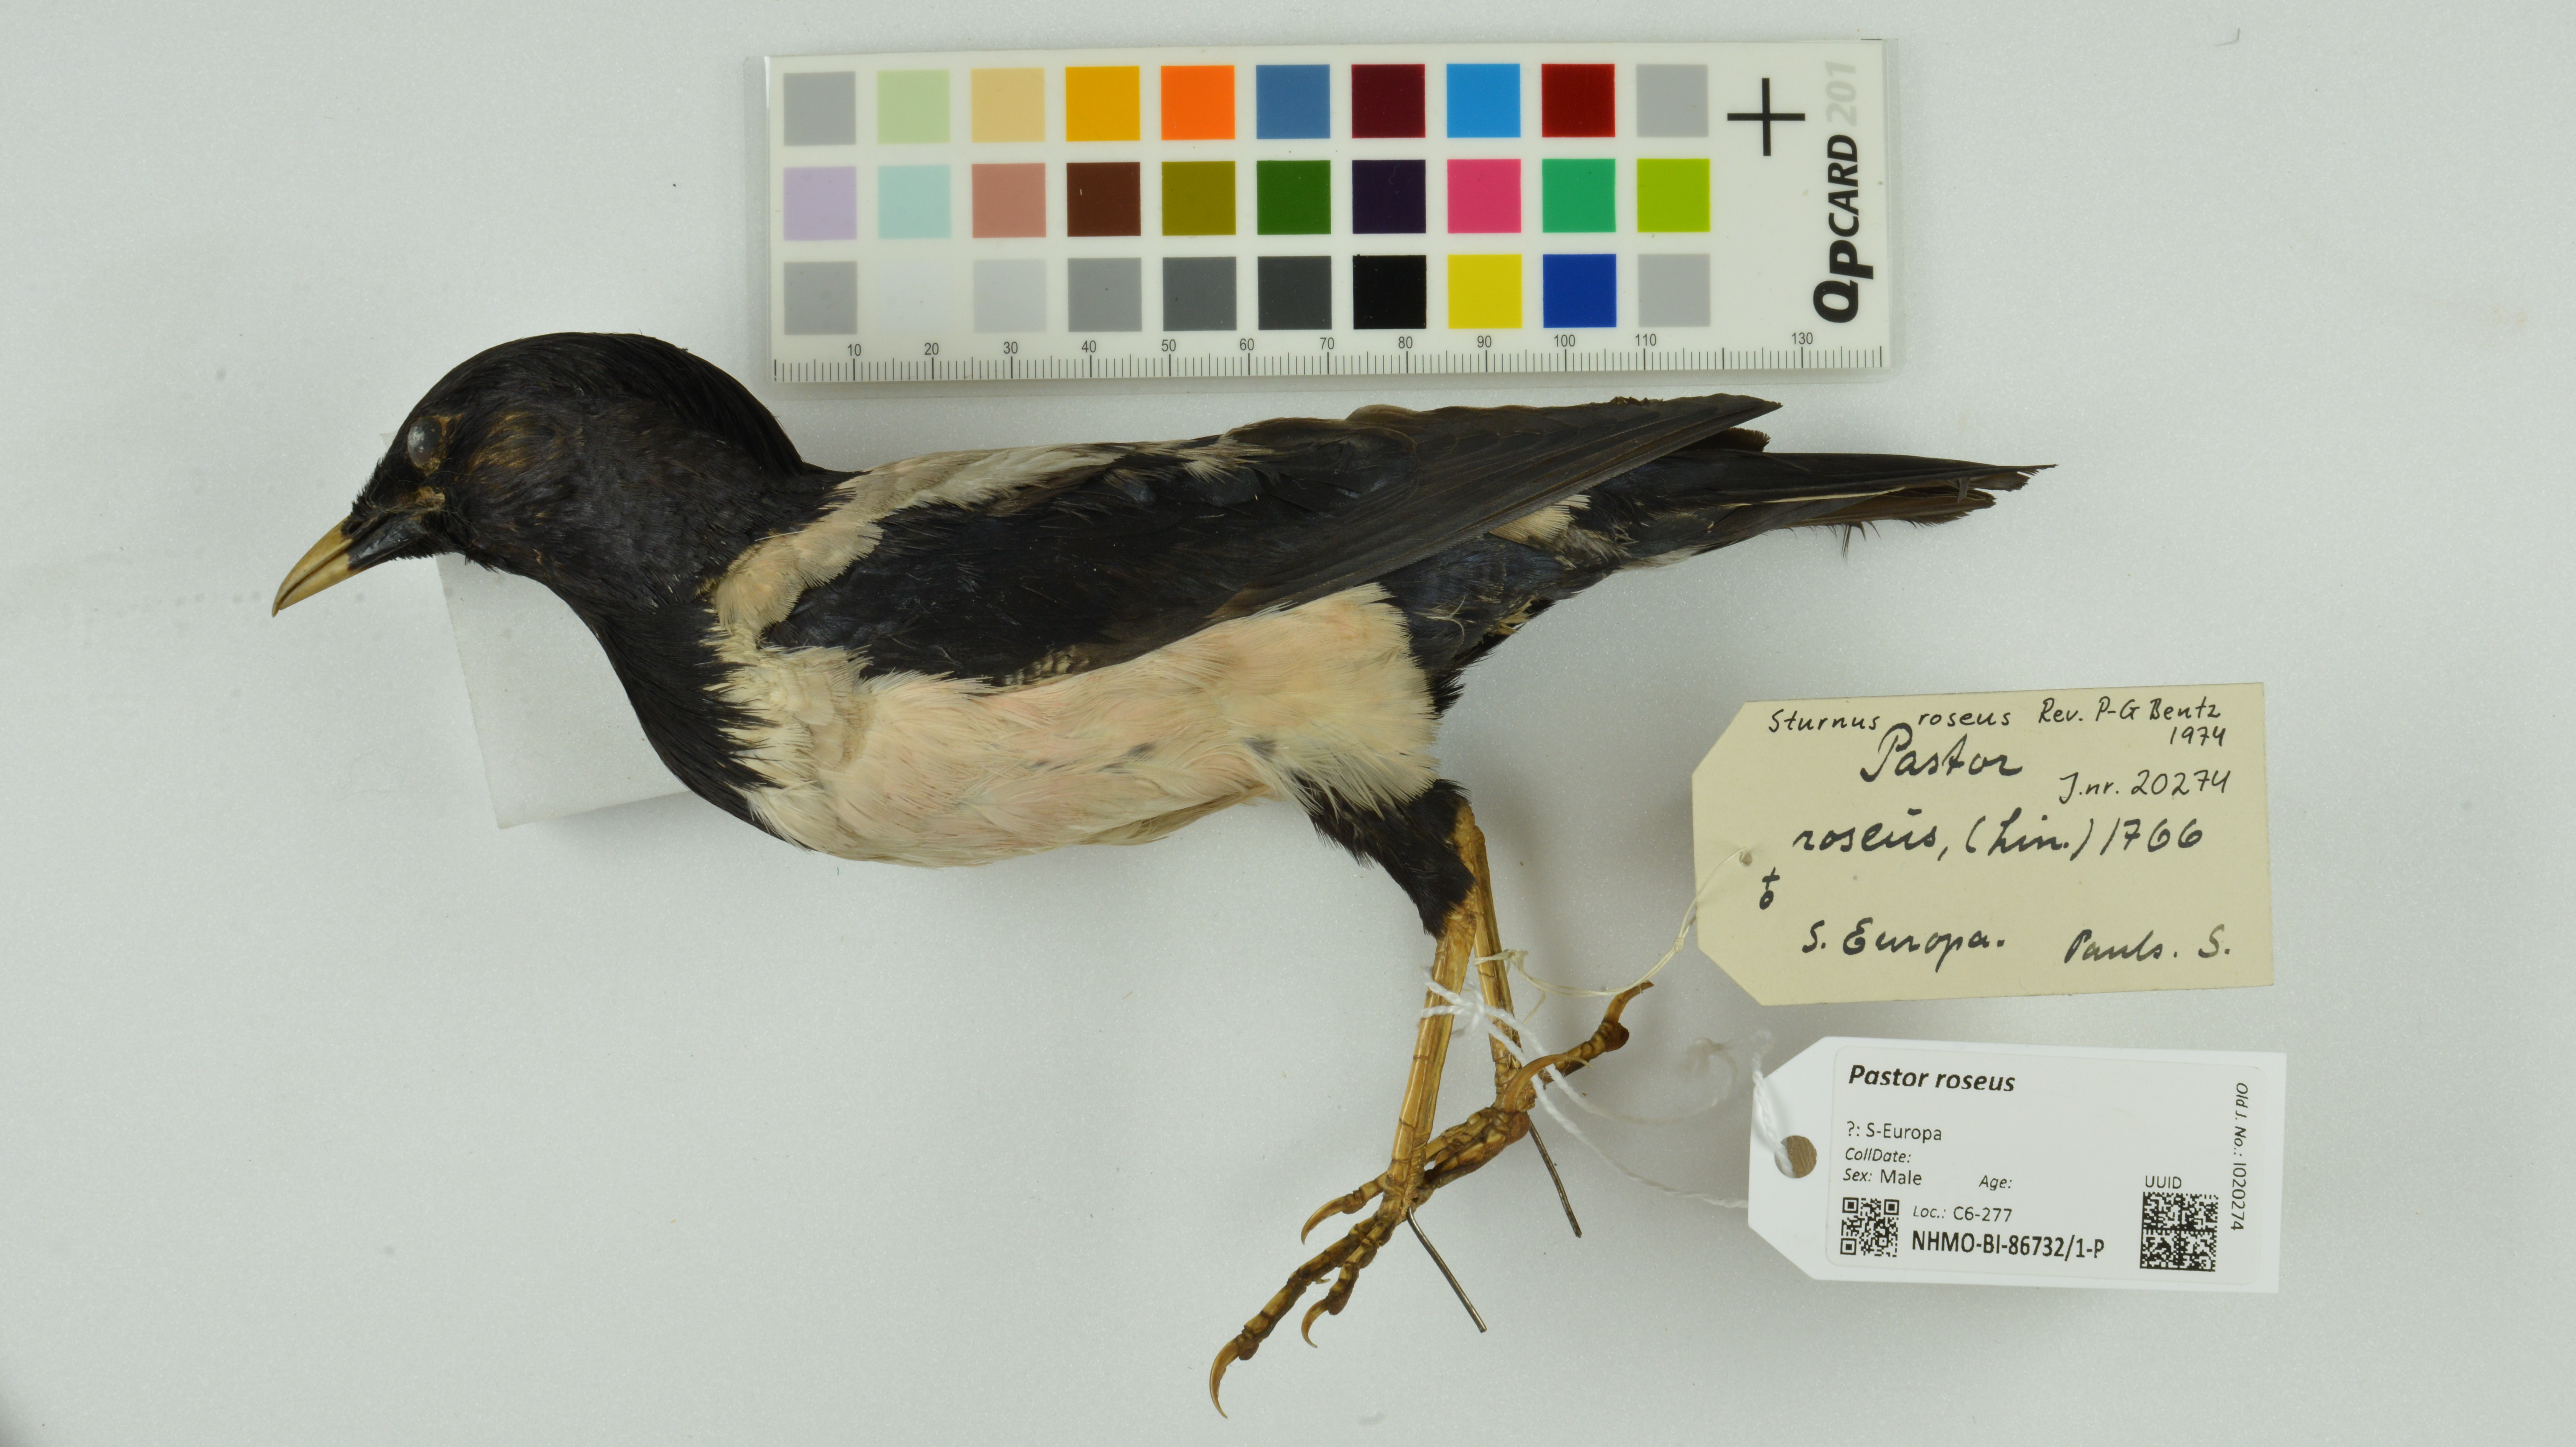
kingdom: Animalia
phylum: Chordata
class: Aves
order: Passeriformes
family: Sturnidae
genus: Pastor
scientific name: Pastor roseus
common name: Rosy starling
